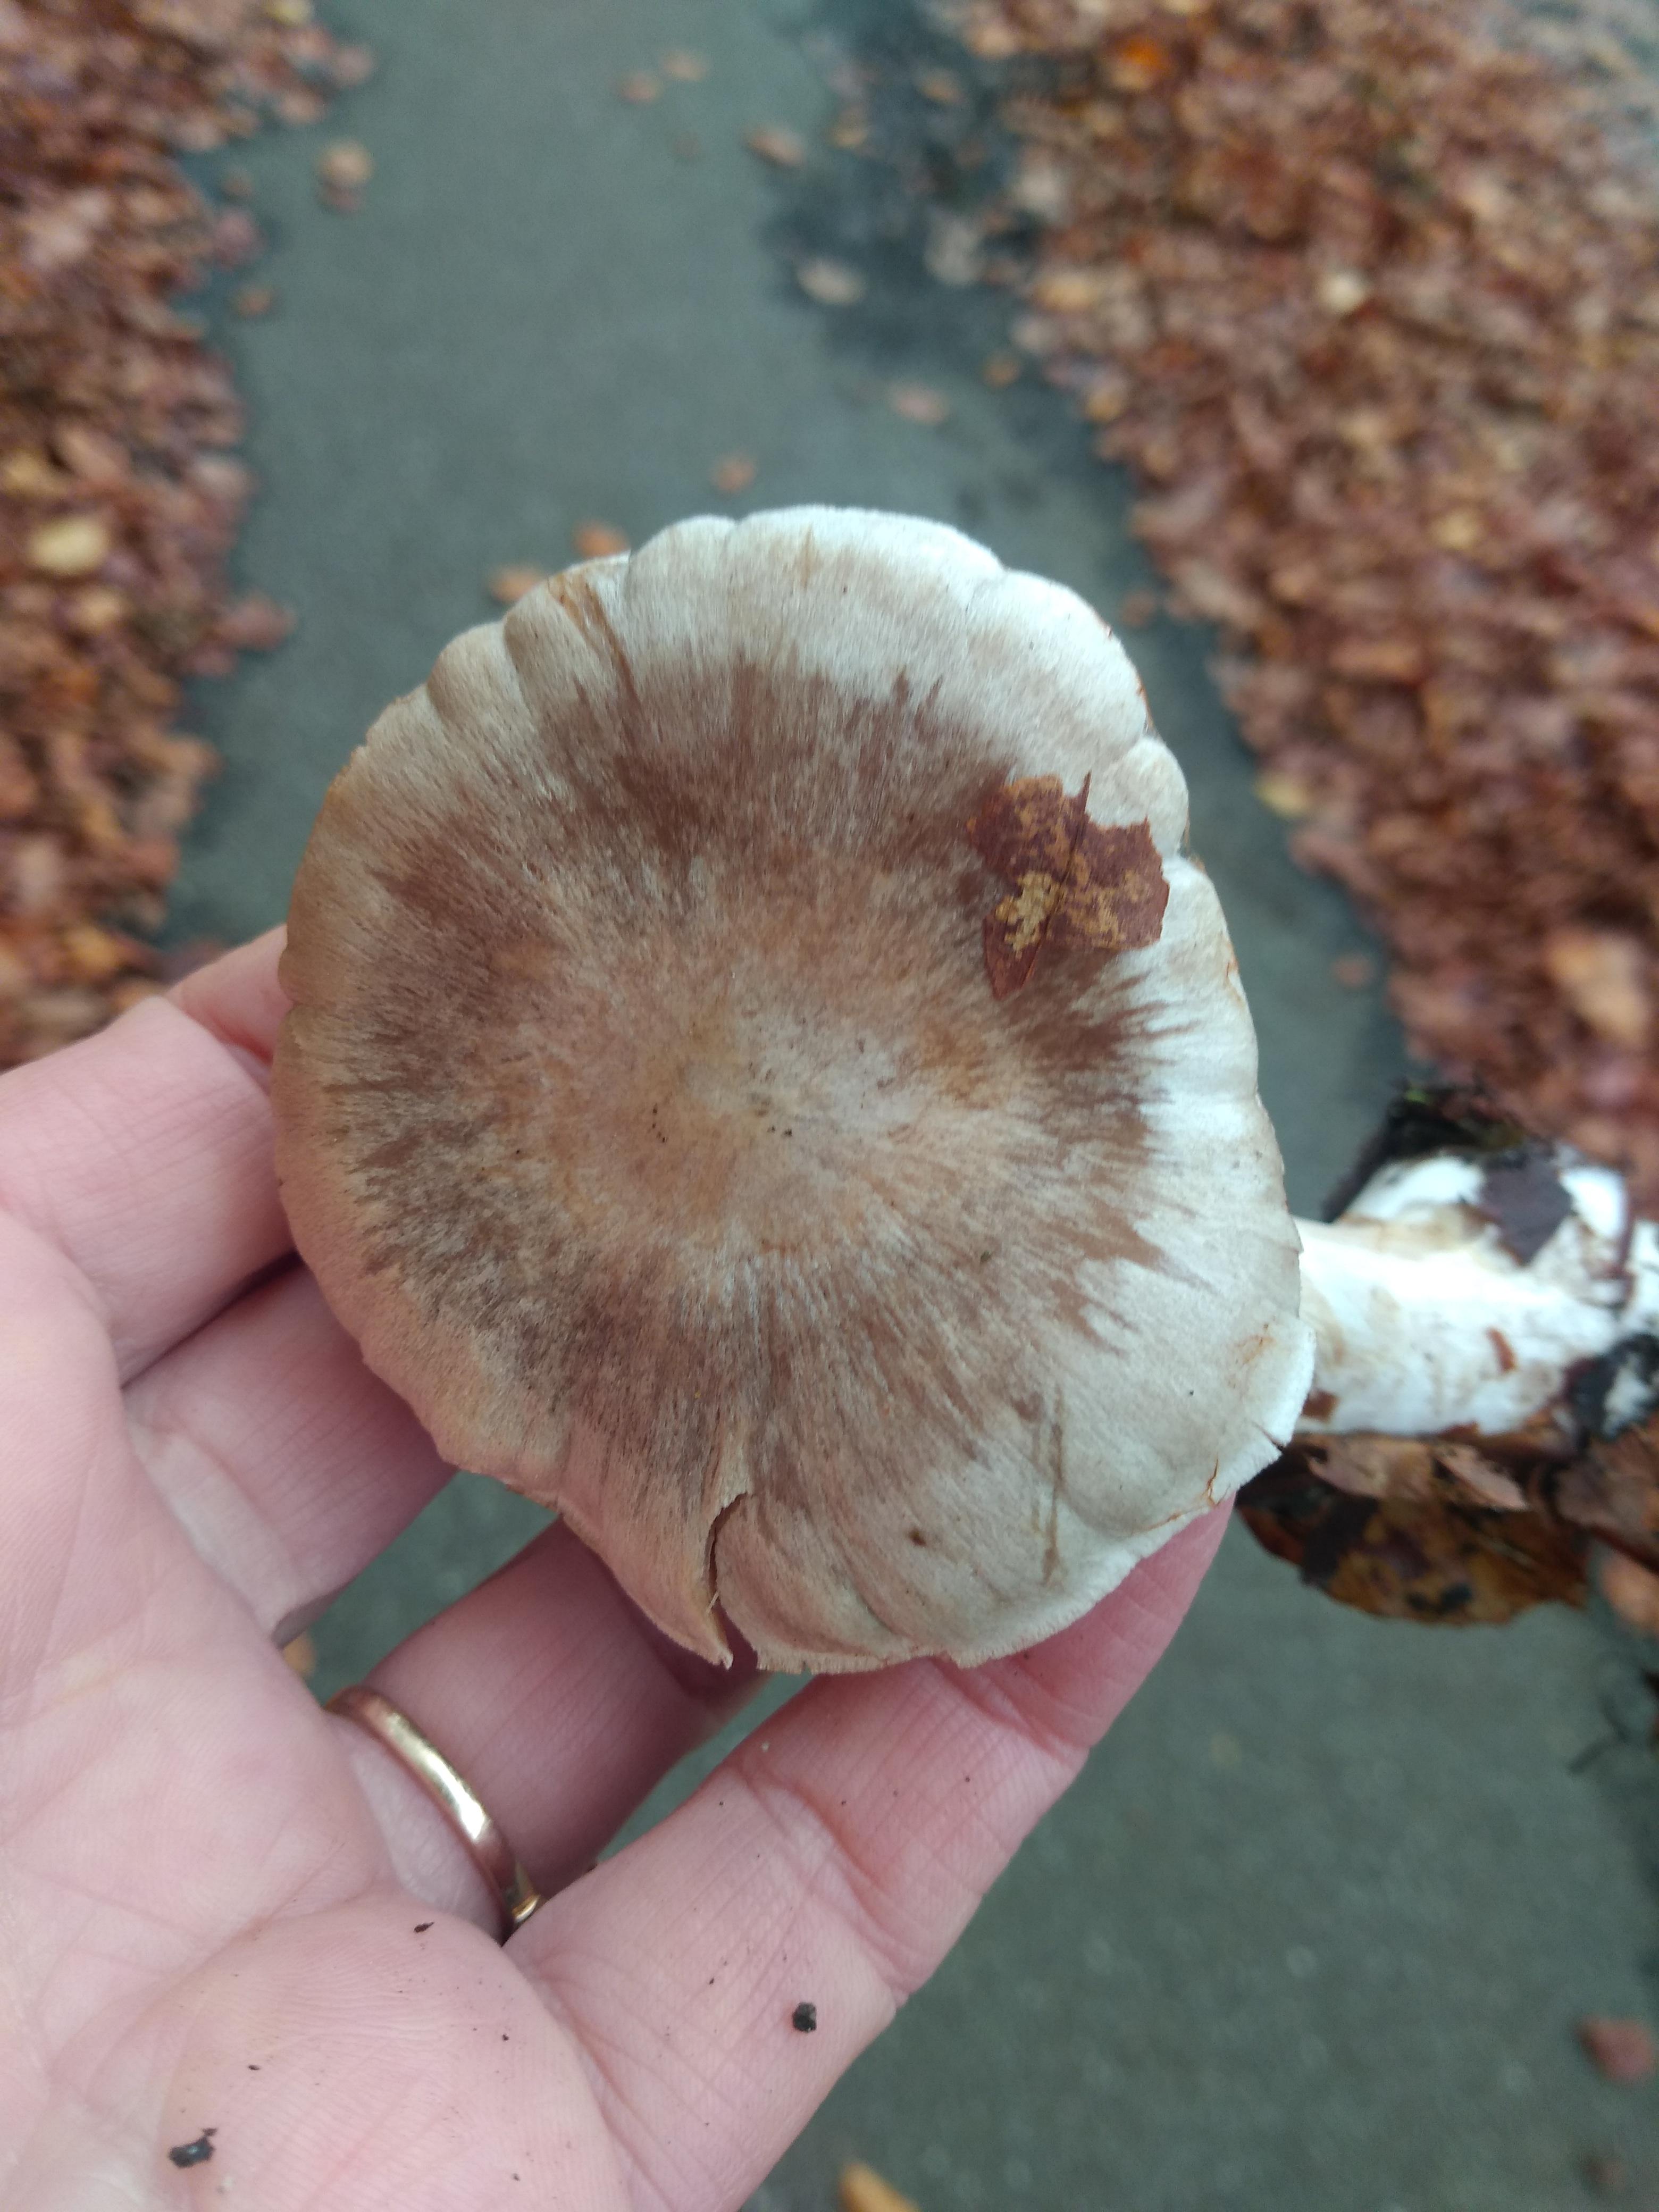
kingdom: Fungi
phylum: Basidiomycota
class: Agaricomycetes
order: Agaricales
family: Cortinariaceae
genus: Cortinarius
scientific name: Cortinarius
